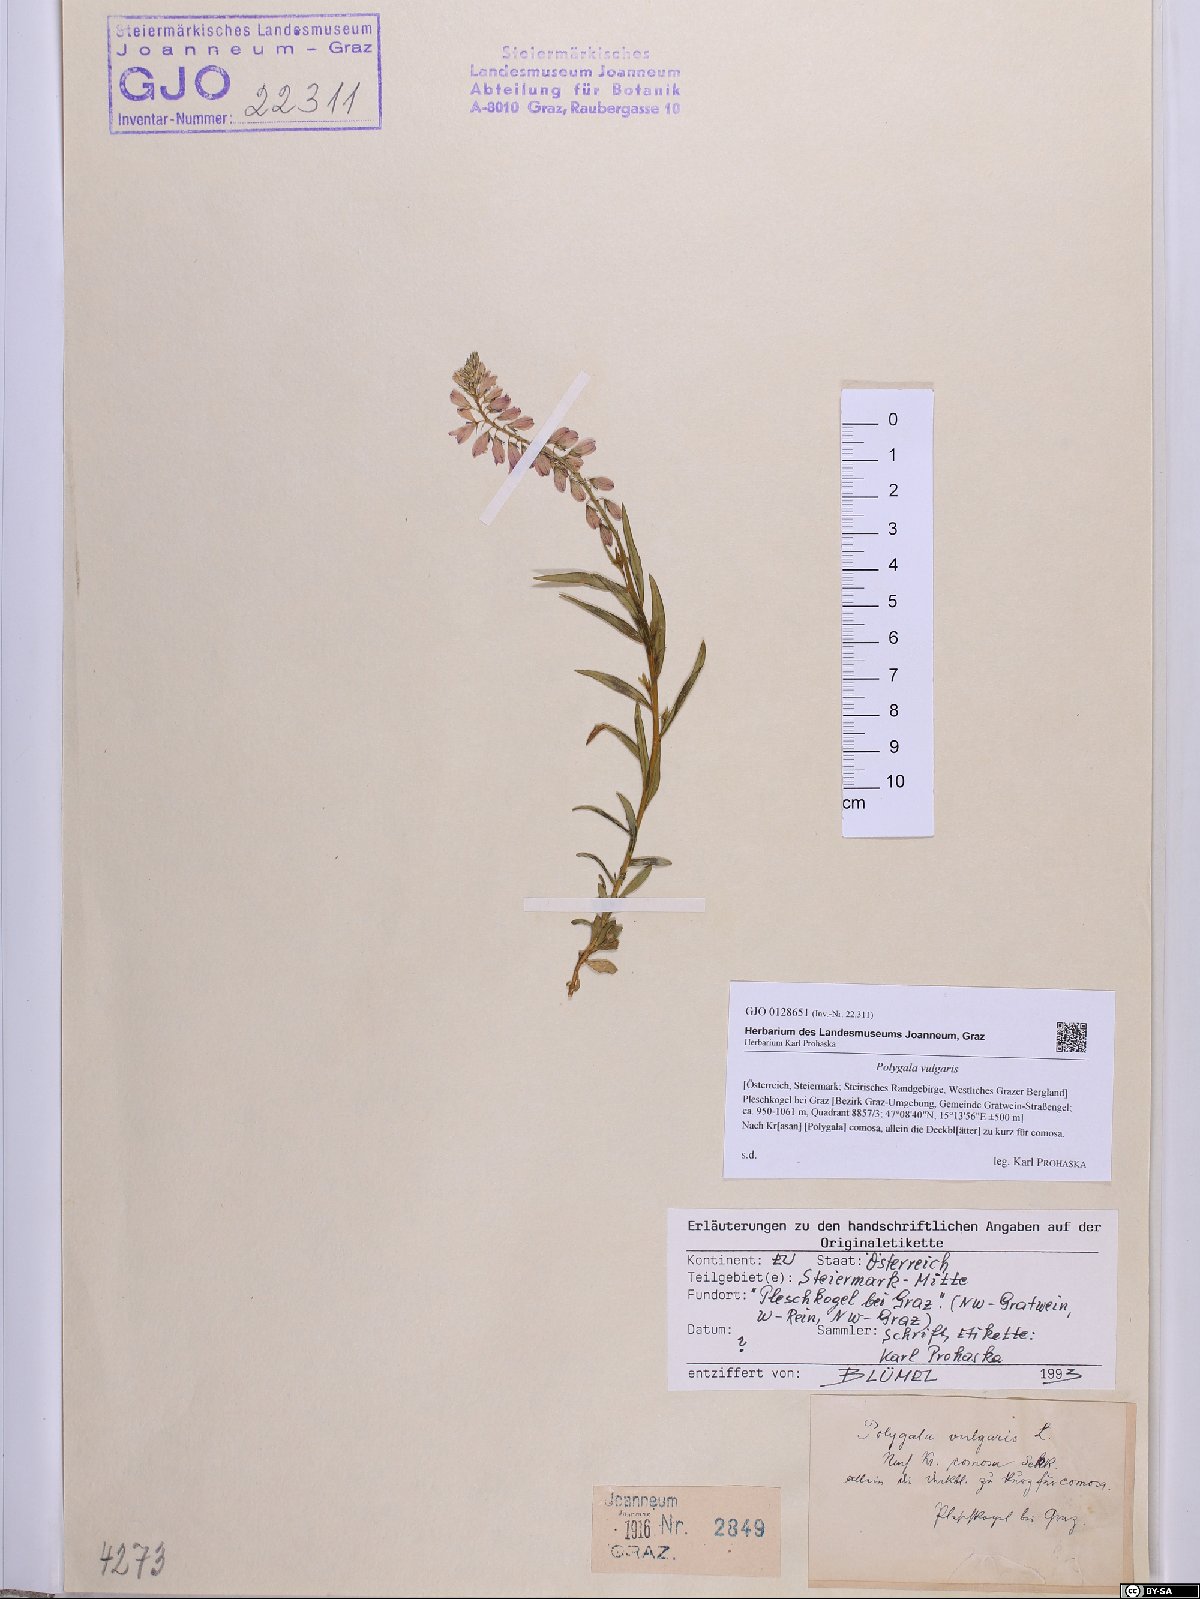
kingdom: Plantae
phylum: Tracheophyta
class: Magnoliopsida
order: Fabales
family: Polygalaceae
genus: Polygala
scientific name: Polygala vulgaris
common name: Common milkwort
